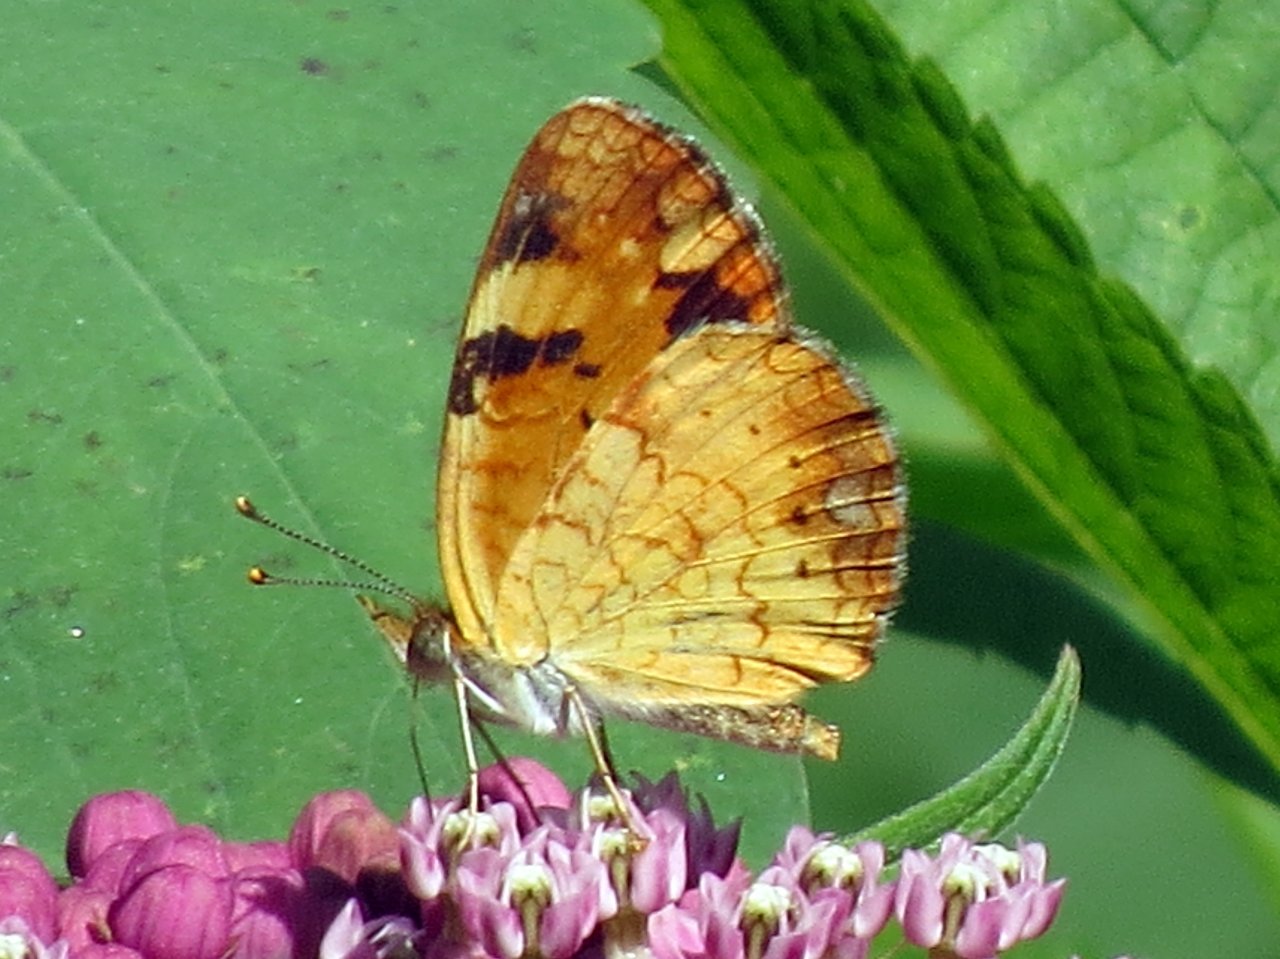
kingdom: Animalia
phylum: Arthropoda
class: Insecta
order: Lepidoptera
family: Nymphalidae
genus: Phyciodes
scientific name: Phyciodes tharos
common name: Northern Crescent
